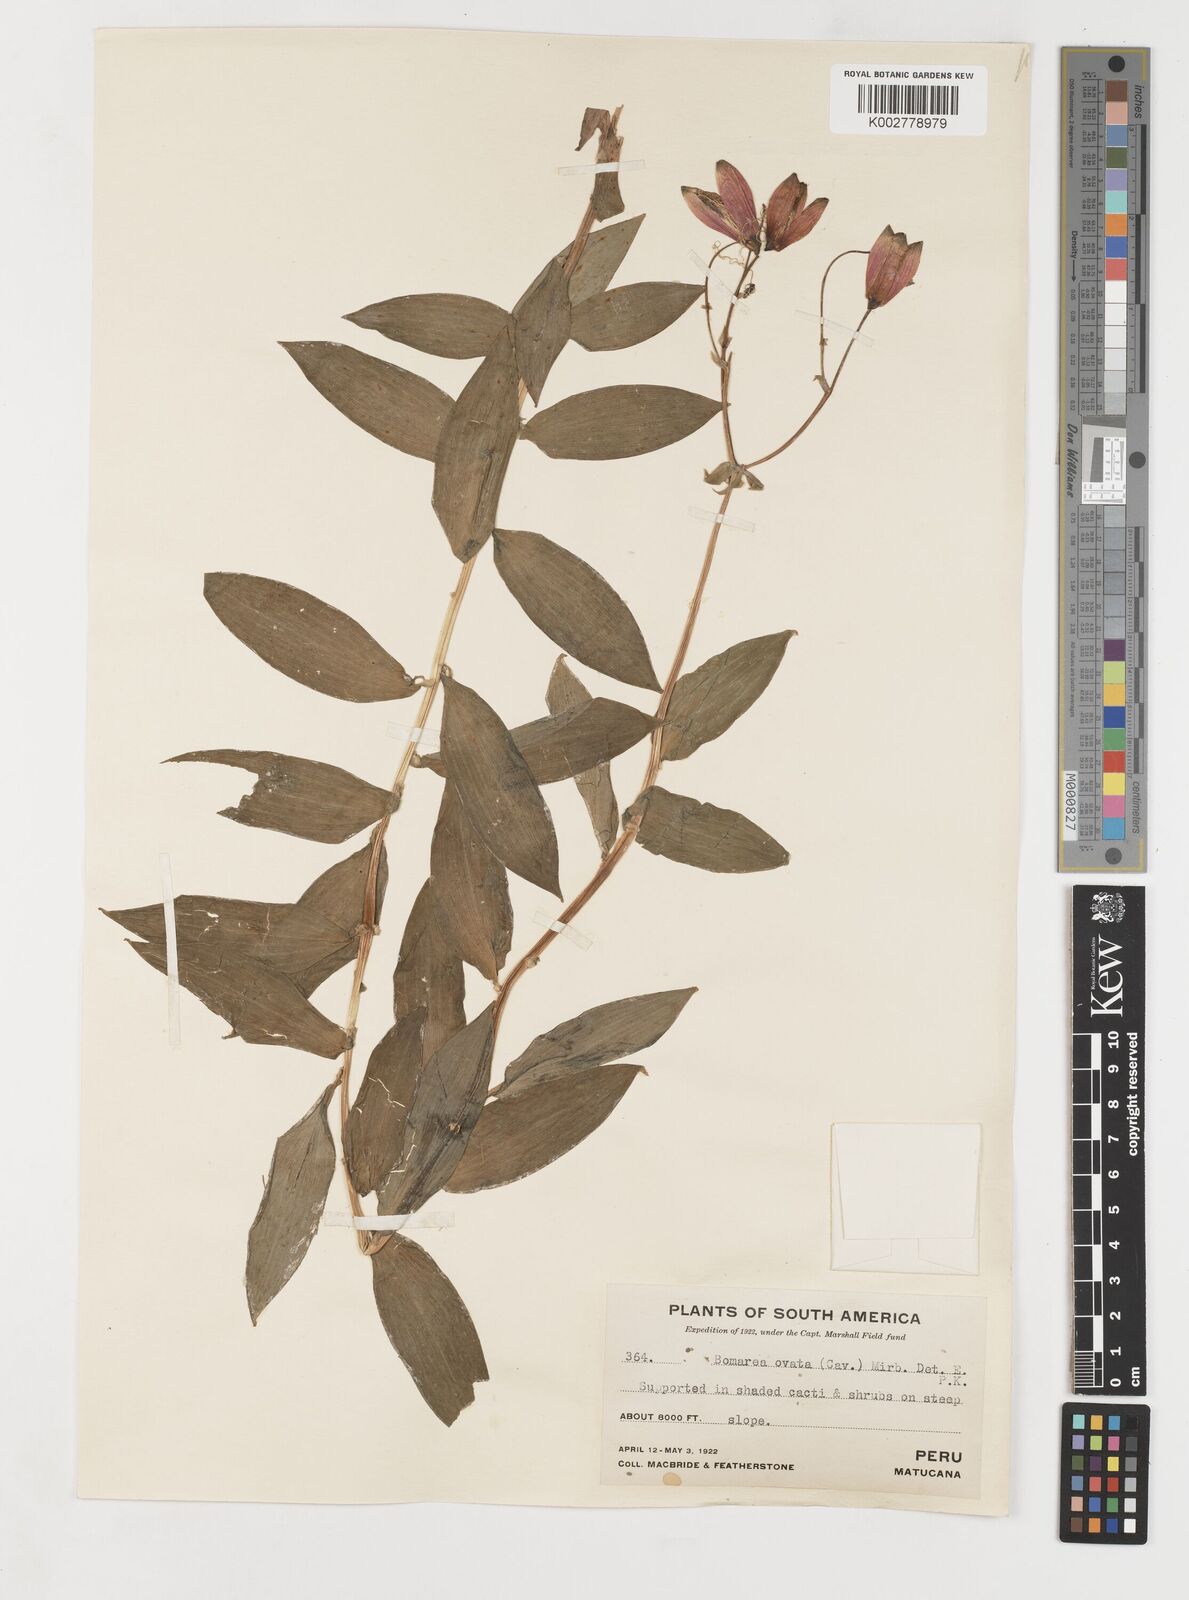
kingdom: Plantae
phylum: Tracheophyta
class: Liliopsida
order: Liliales
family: Alstroemeriaceae
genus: Bomarea
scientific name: Bomarea ovata
